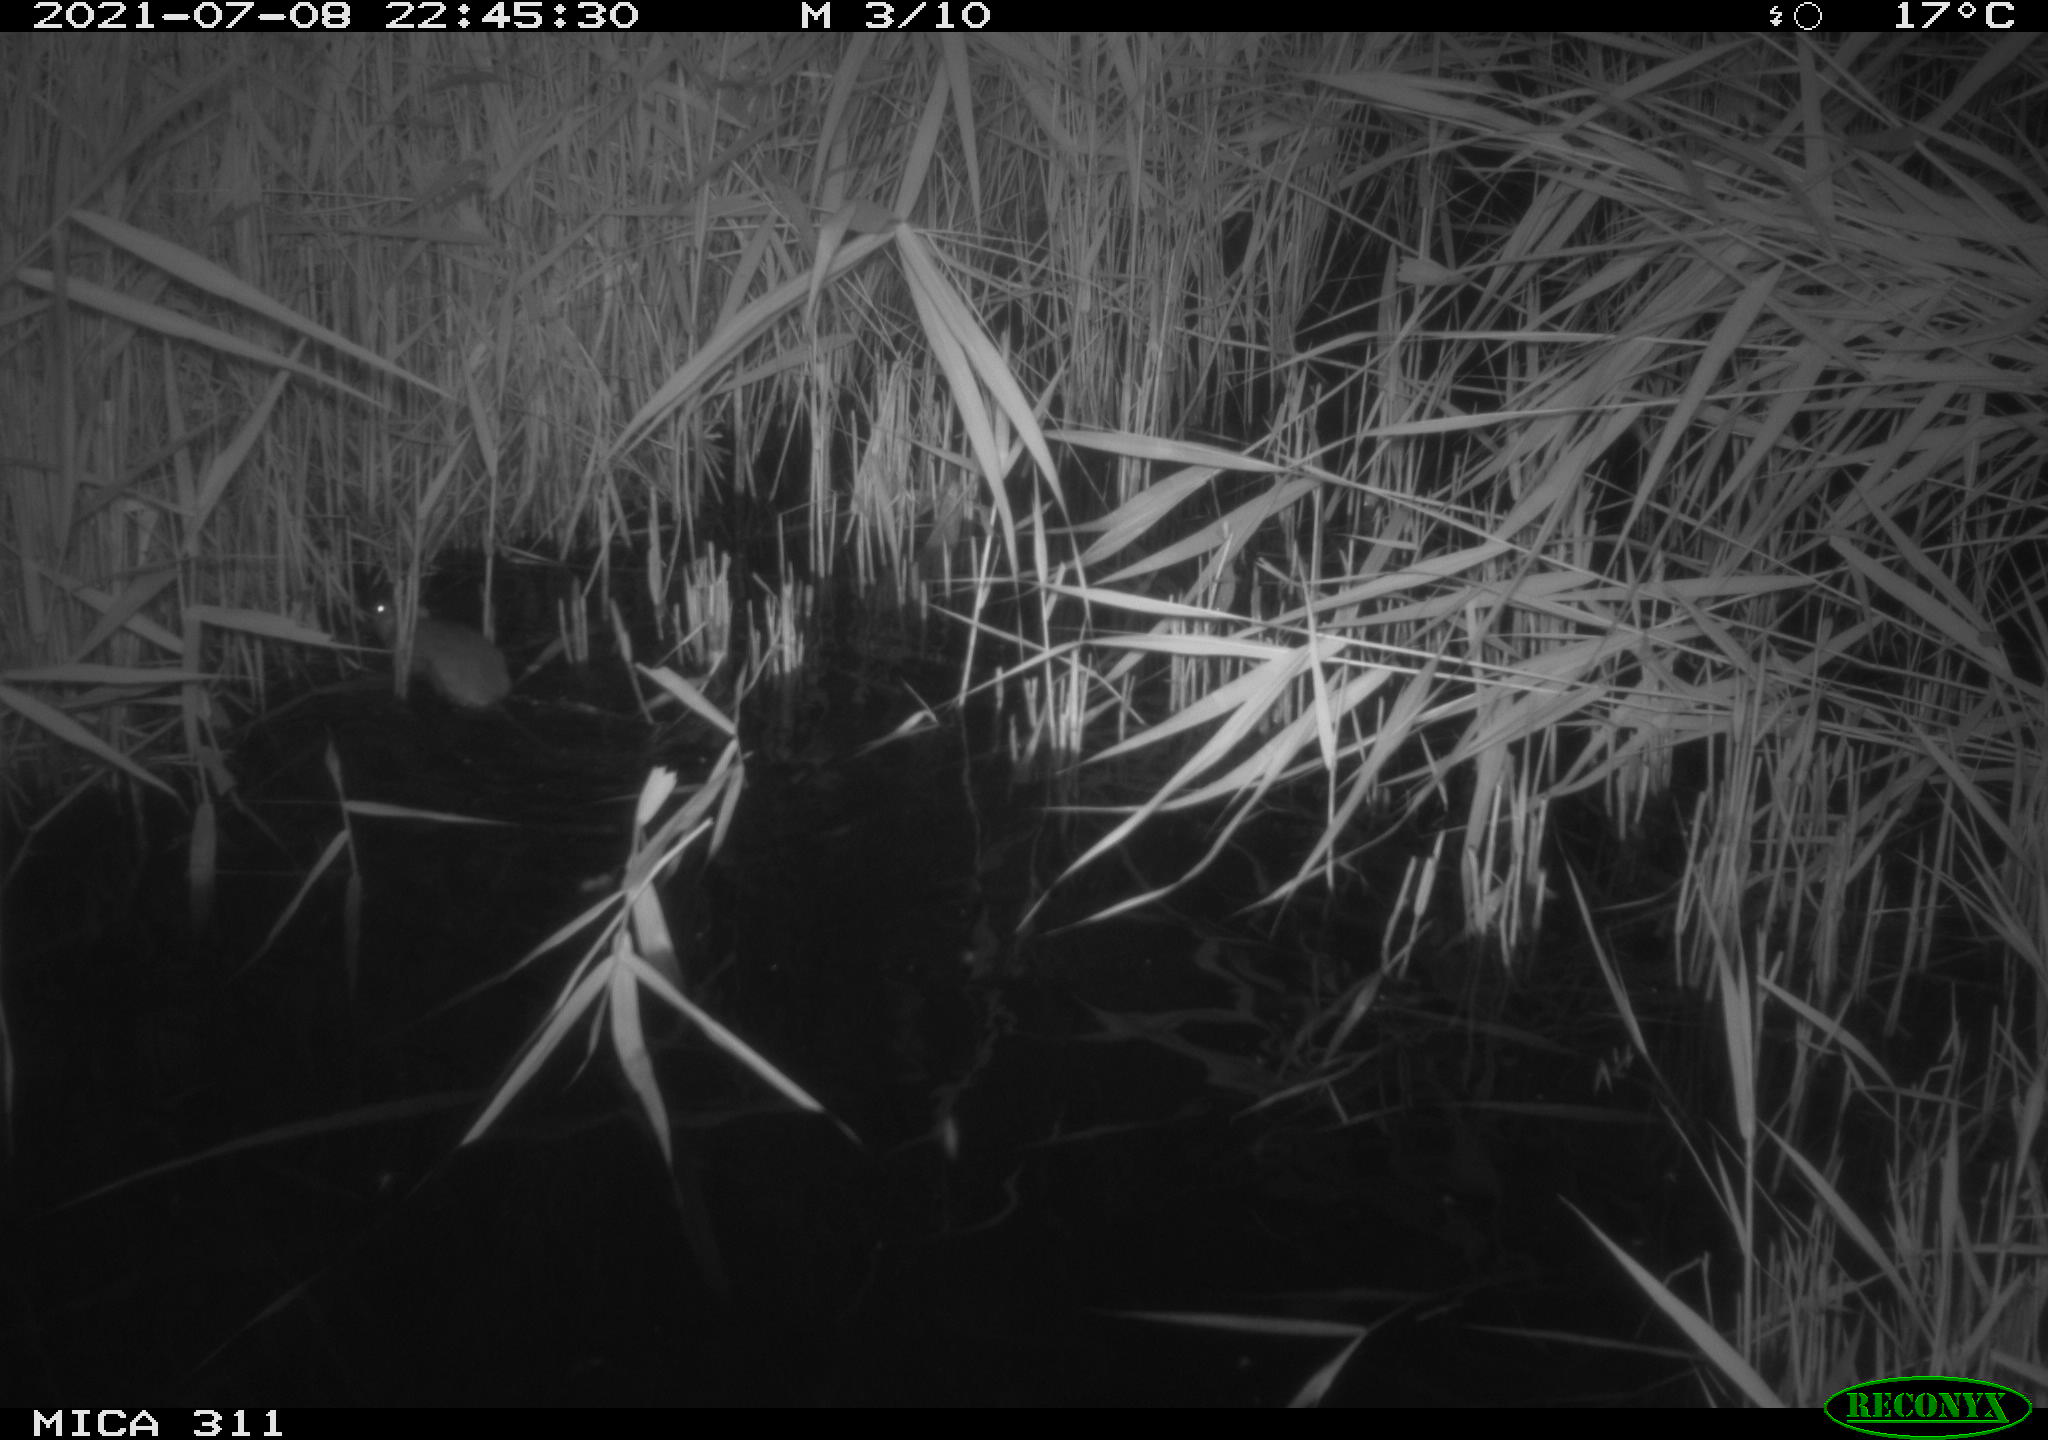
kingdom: Animalia
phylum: Chordata
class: Mammalia
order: Rodentia
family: Muridae
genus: Rattus
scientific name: Rattus norvegicus
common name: Brown rat
